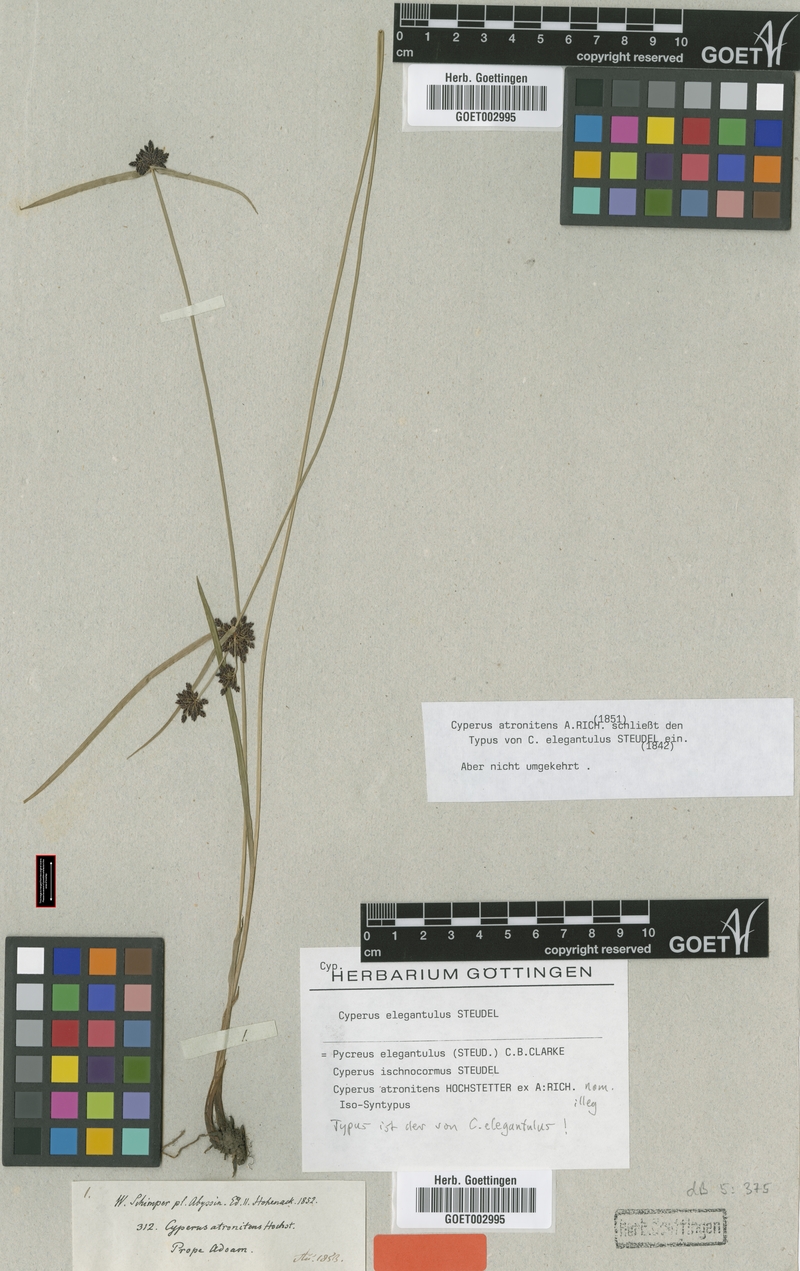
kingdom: Plantae
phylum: Tracheophyta
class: Liliopsida
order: Poales
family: Cyperaceae
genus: Cyperus
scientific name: Cyperus elegantulus
